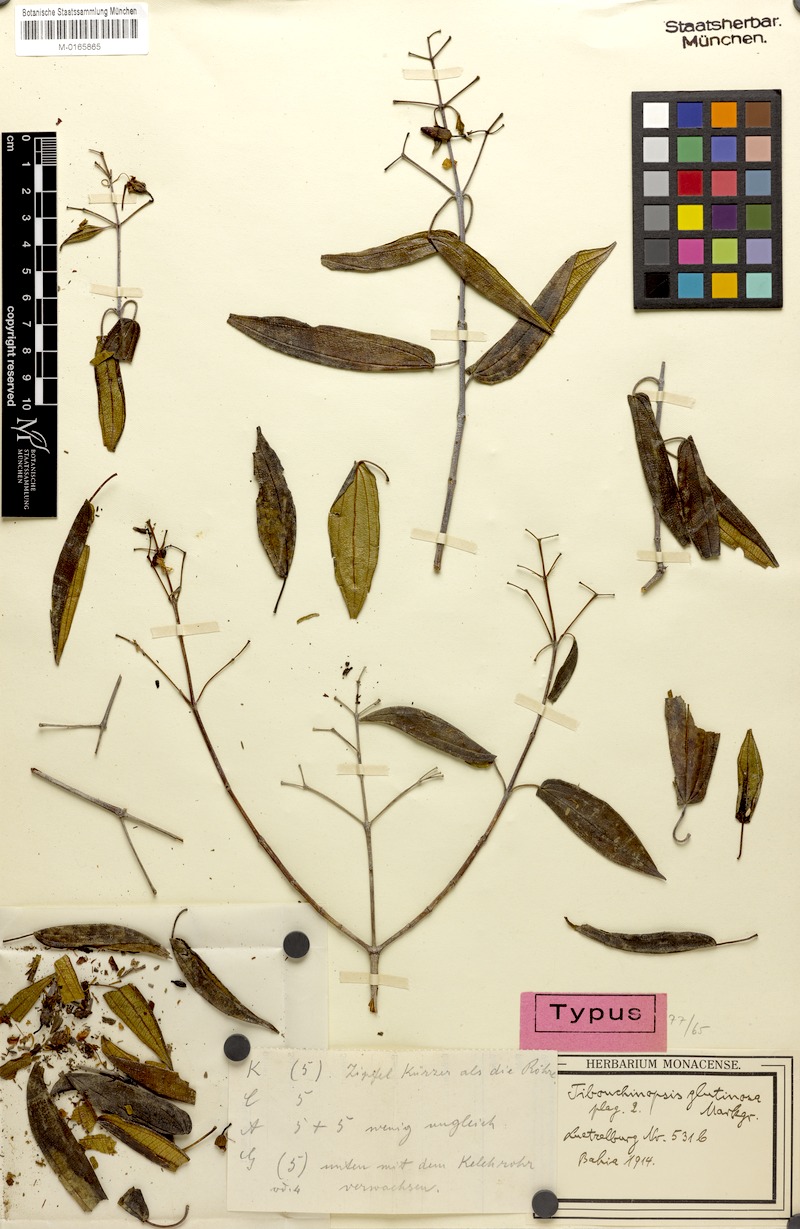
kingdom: Plantae
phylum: Tracheophyta
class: Magnoliopsida
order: Myrtales
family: Melastomataceae
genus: Pleroma
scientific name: Pleroma glutinosum
